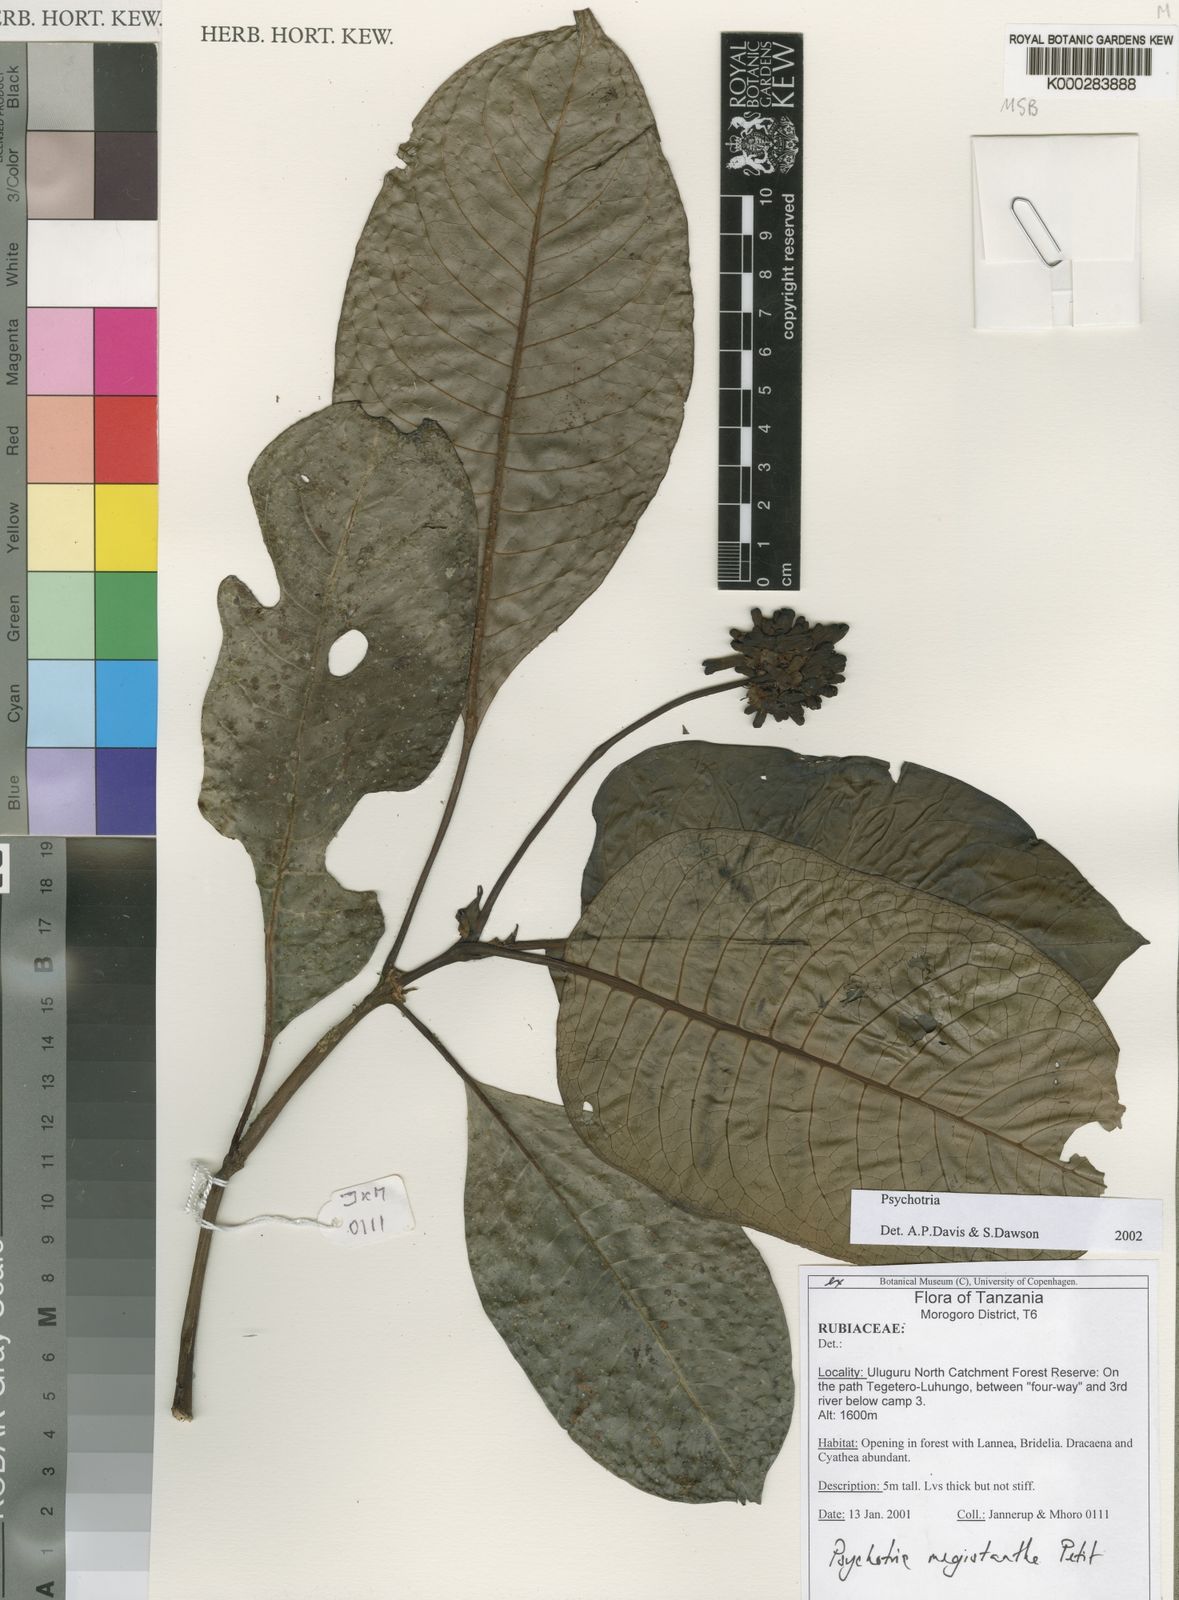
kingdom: Plantae
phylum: Tracheophyta
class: Magnoliopsida
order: Gentianales
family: Rubiaceae
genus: Psychotria
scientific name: Psychotria megistantha
